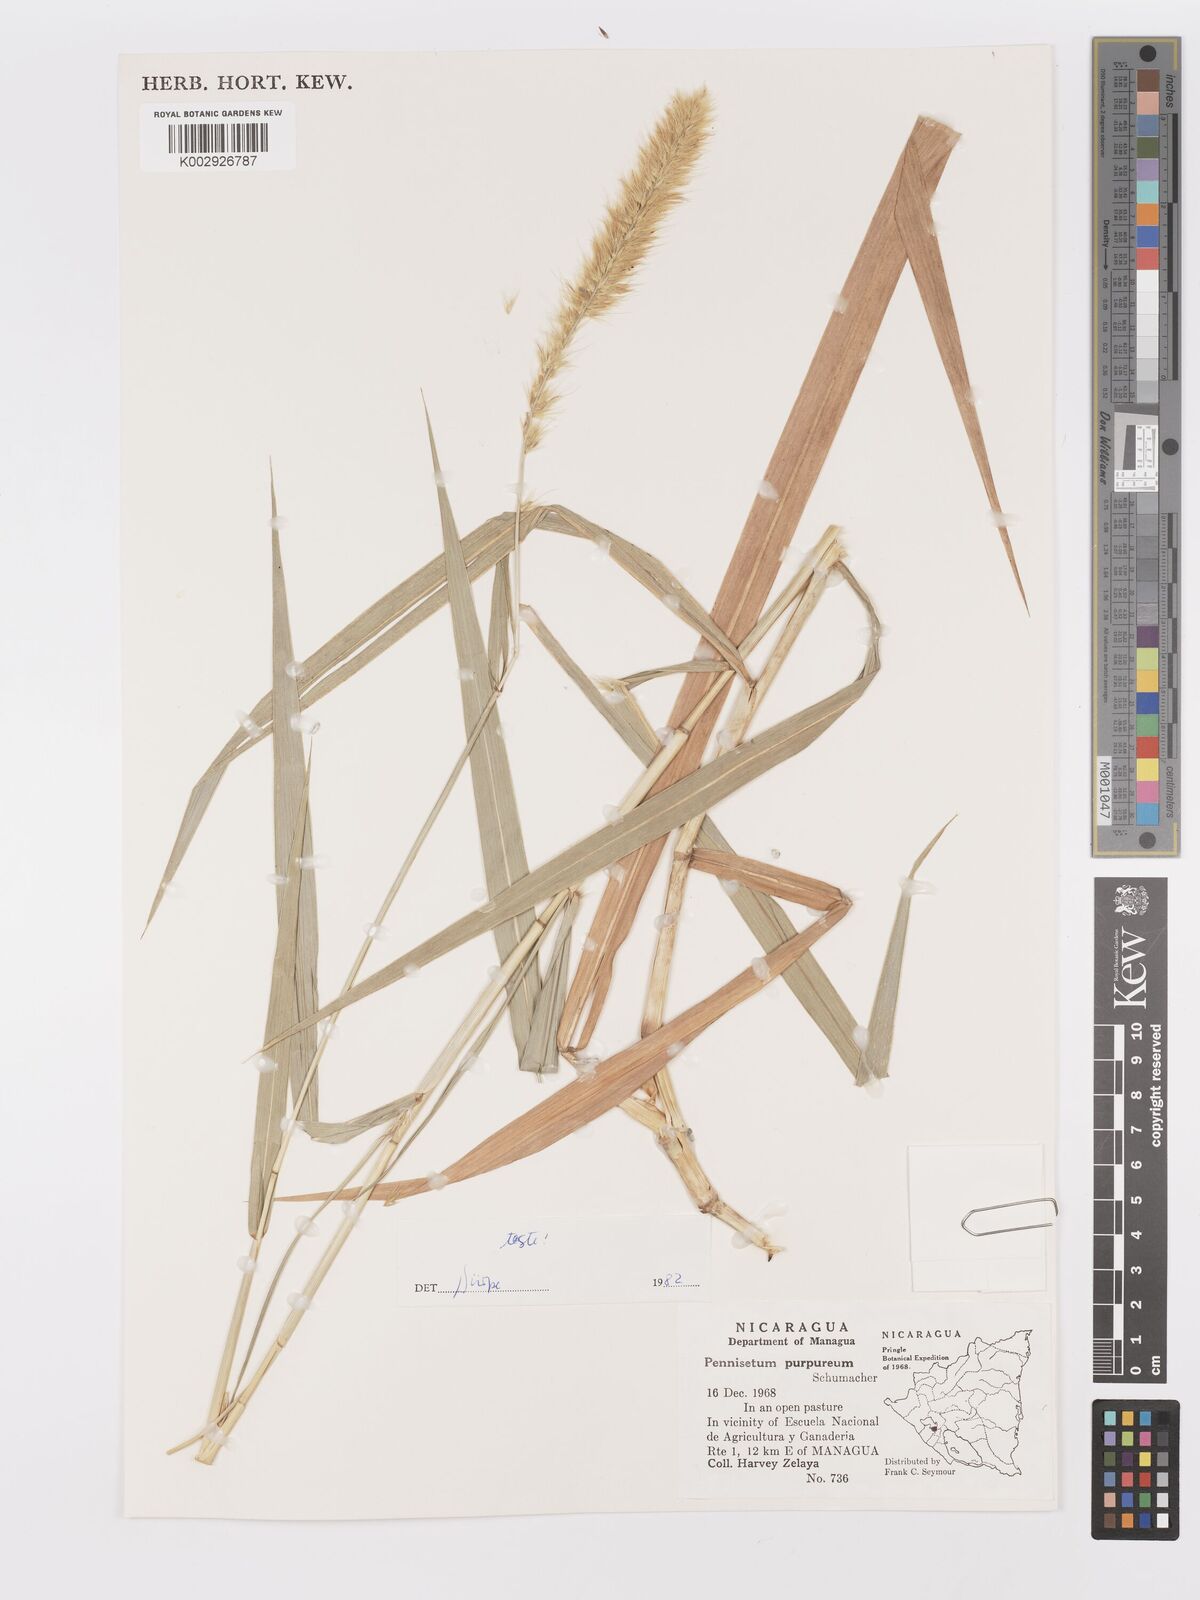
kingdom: Plantae
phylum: Tracheophyta
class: Liliopsida
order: Poales
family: Poaceae
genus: Cenchrus
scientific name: Cenchrus purpureus
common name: Elephant grass
